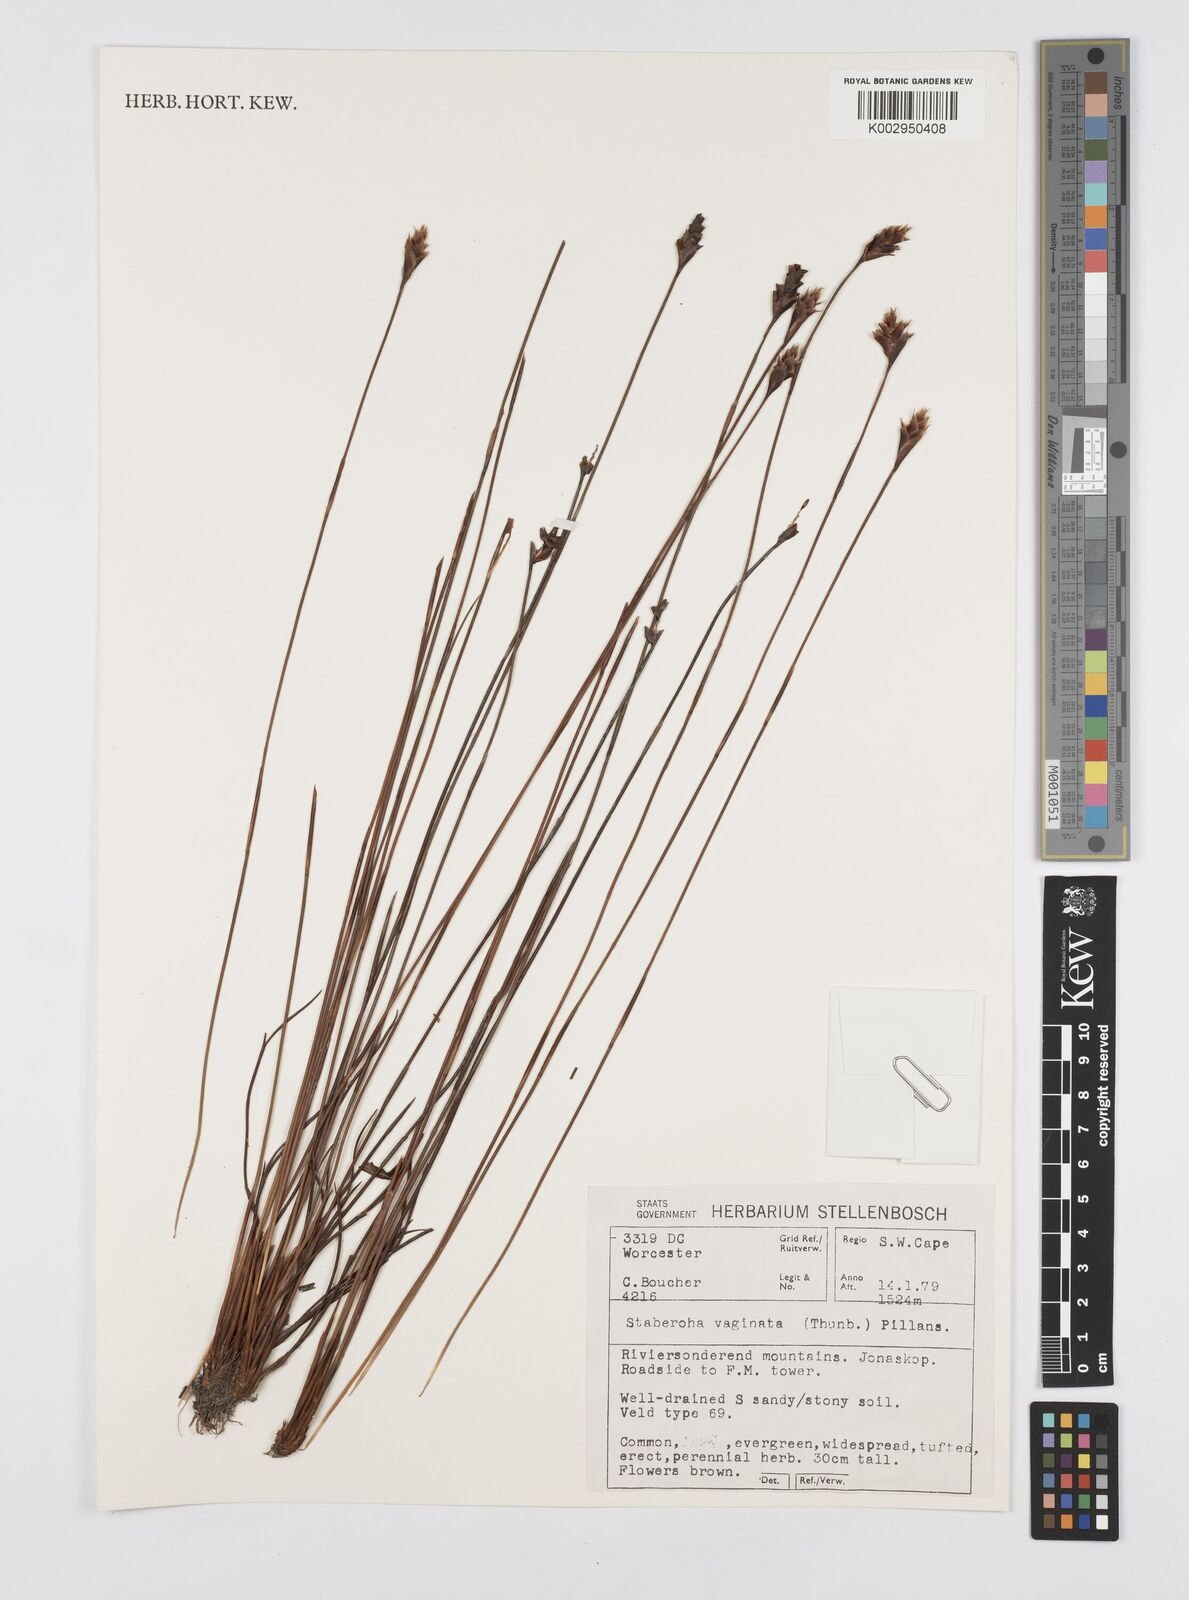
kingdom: Plantae
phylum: Tracheophyta
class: Liliopsida
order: Poales
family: Restionaceae
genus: Staberoha
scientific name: Staberoha vaginata
